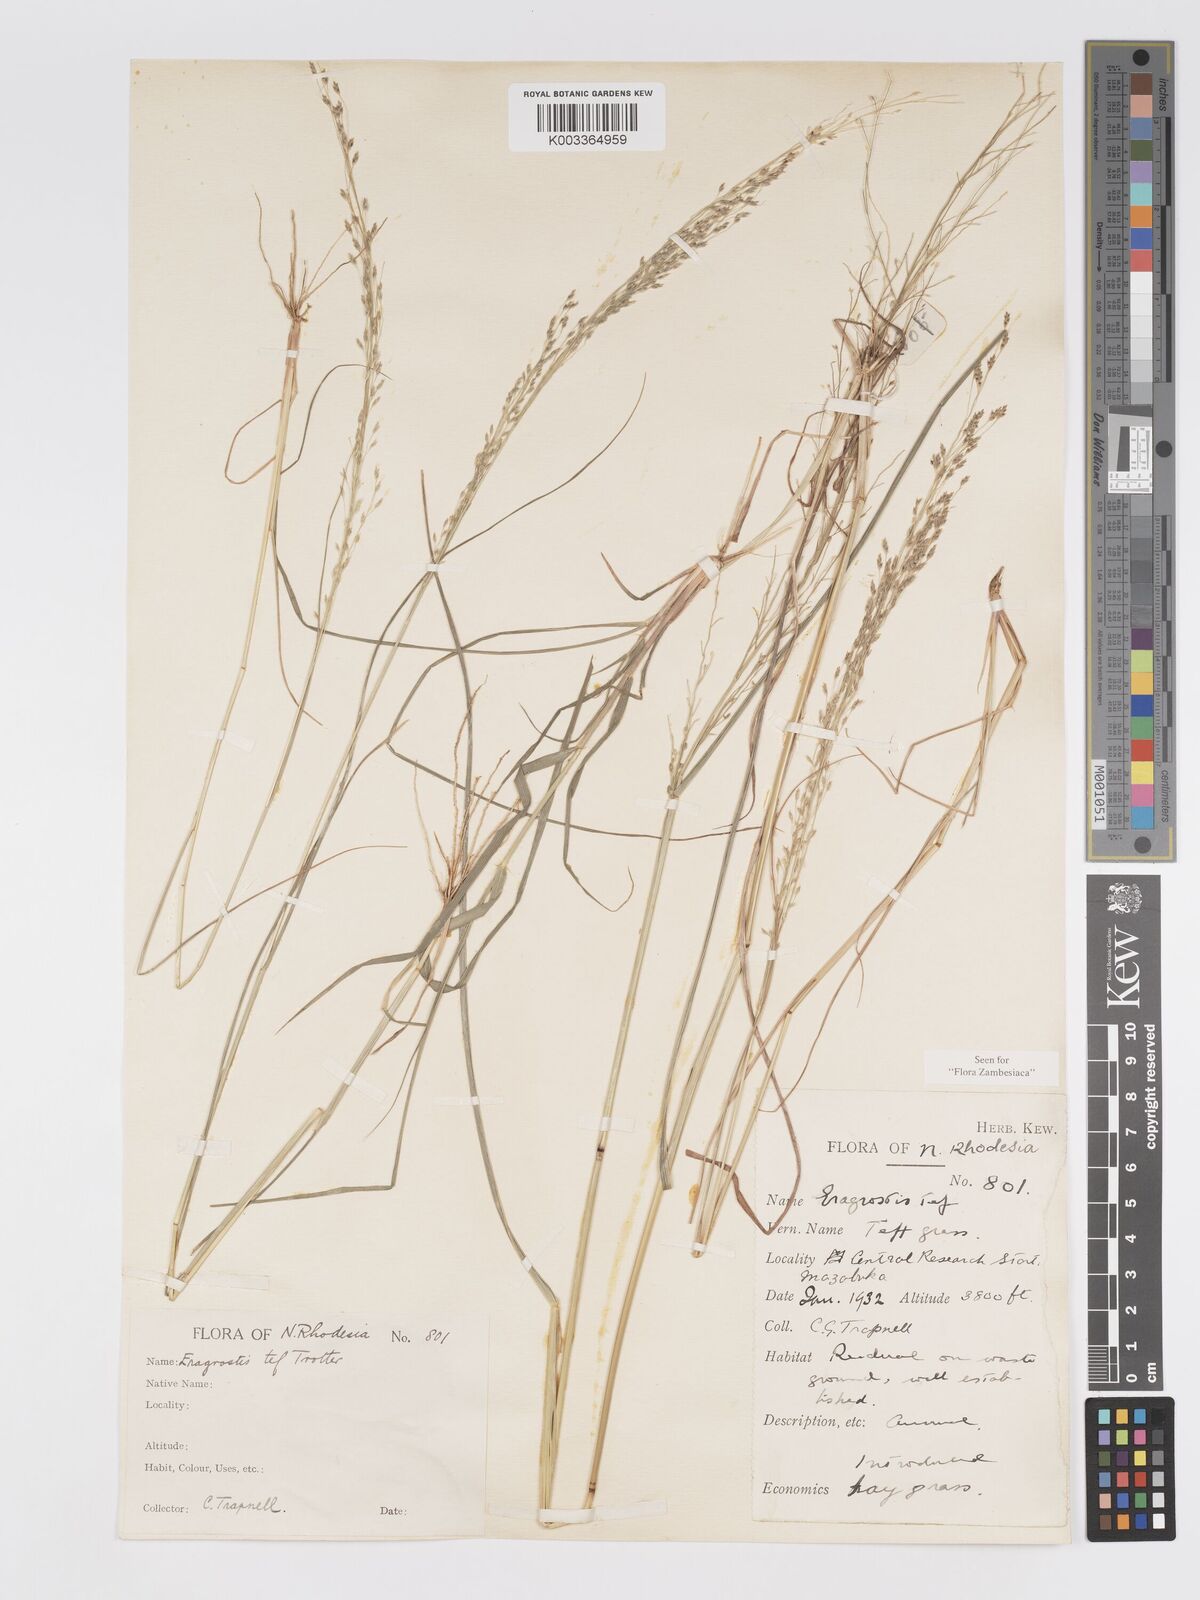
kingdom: Plantae
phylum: Tracheophyta
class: Liliopsida
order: Poales
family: Poaceae
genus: Eragrostis
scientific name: Eragrostis tef
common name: Teff
